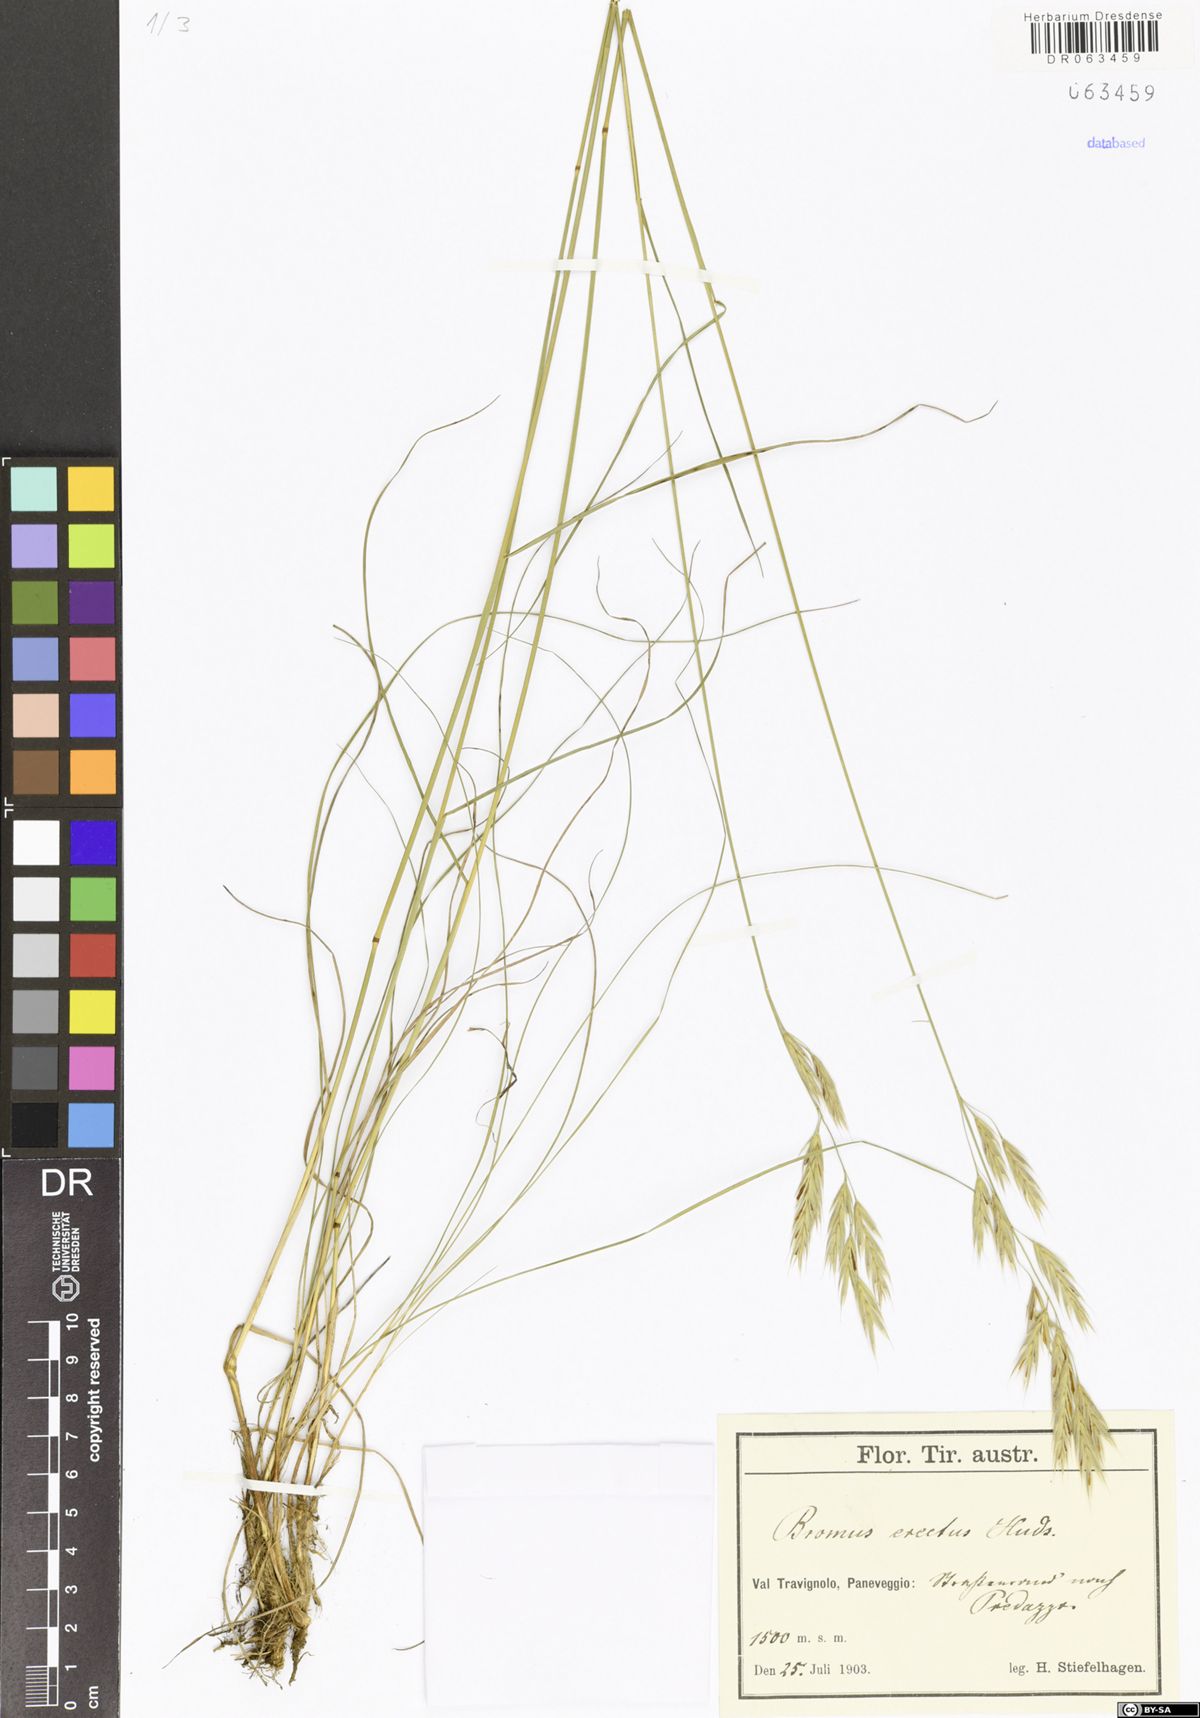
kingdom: Plantae
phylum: Tracheophyta
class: Liliopsida
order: Poales
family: Poaceae
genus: Bromus
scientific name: Bromus erectus
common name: Erect brome
